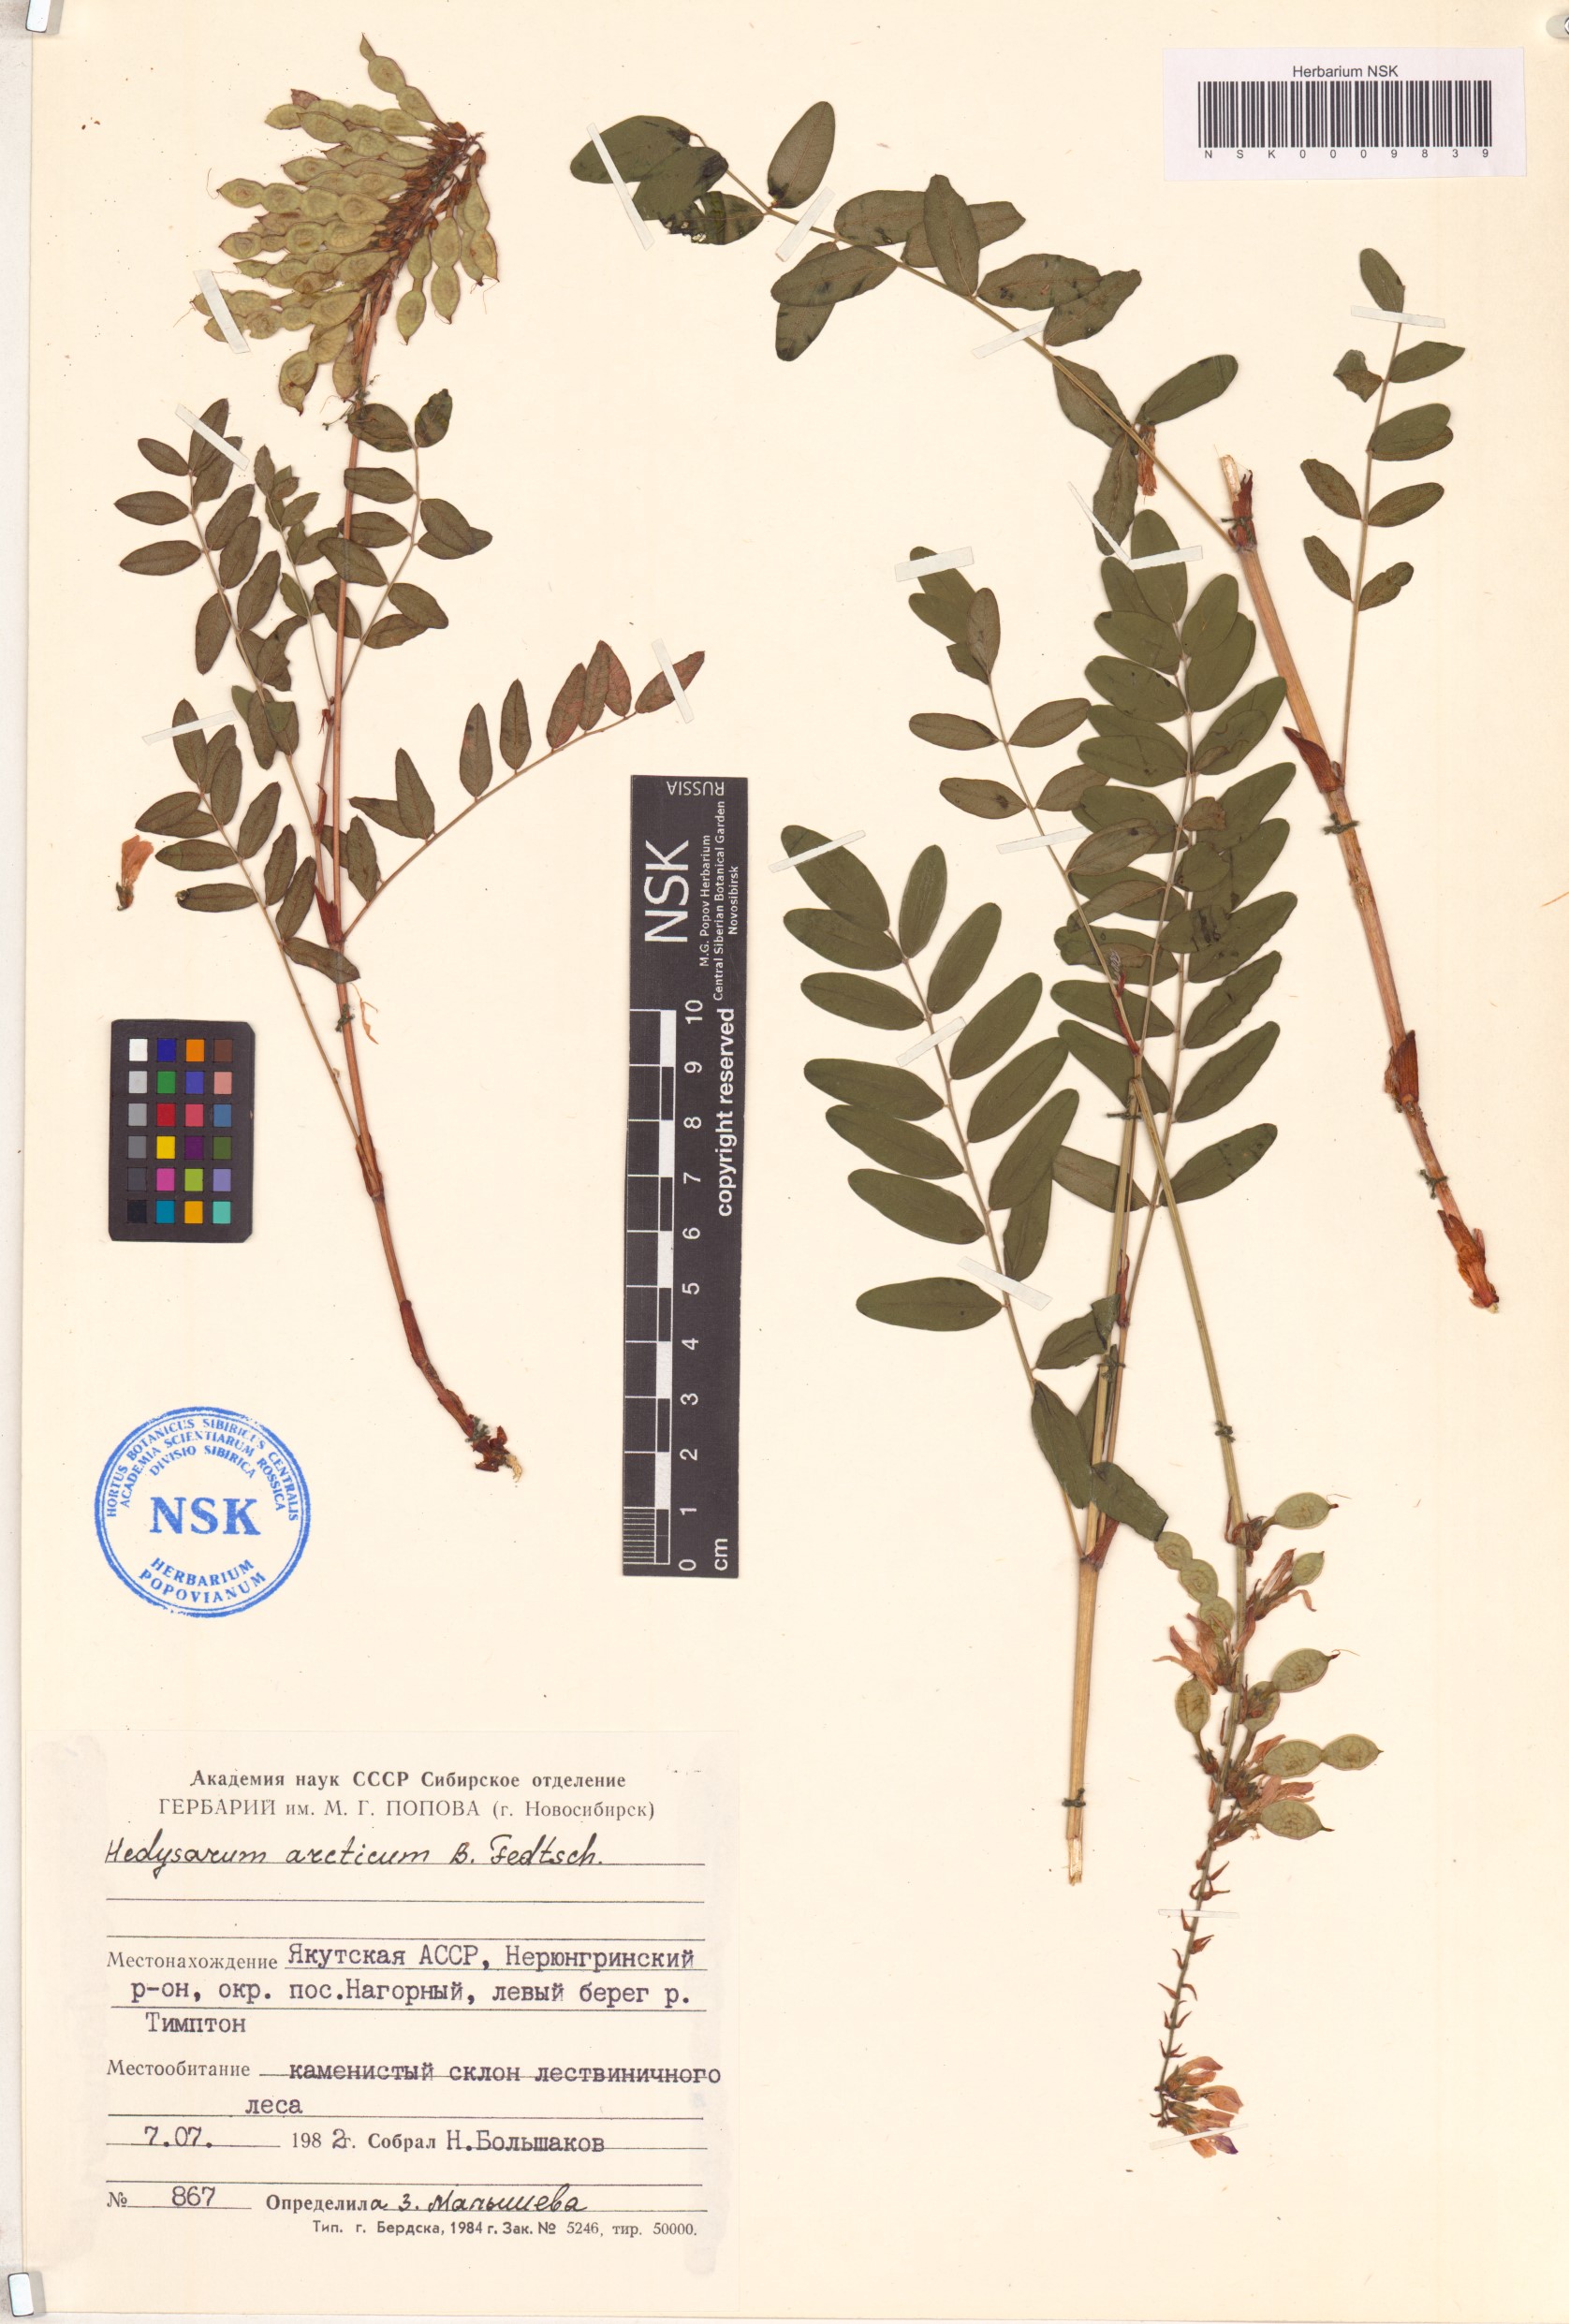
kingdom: Plantae
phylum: Tracheophyta
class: Magnoliopsida
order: Fabales
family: Fabaceae
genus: Hedysarum
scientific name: Hedysarum hedysaroides
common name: Alpine french-honeysuckle
